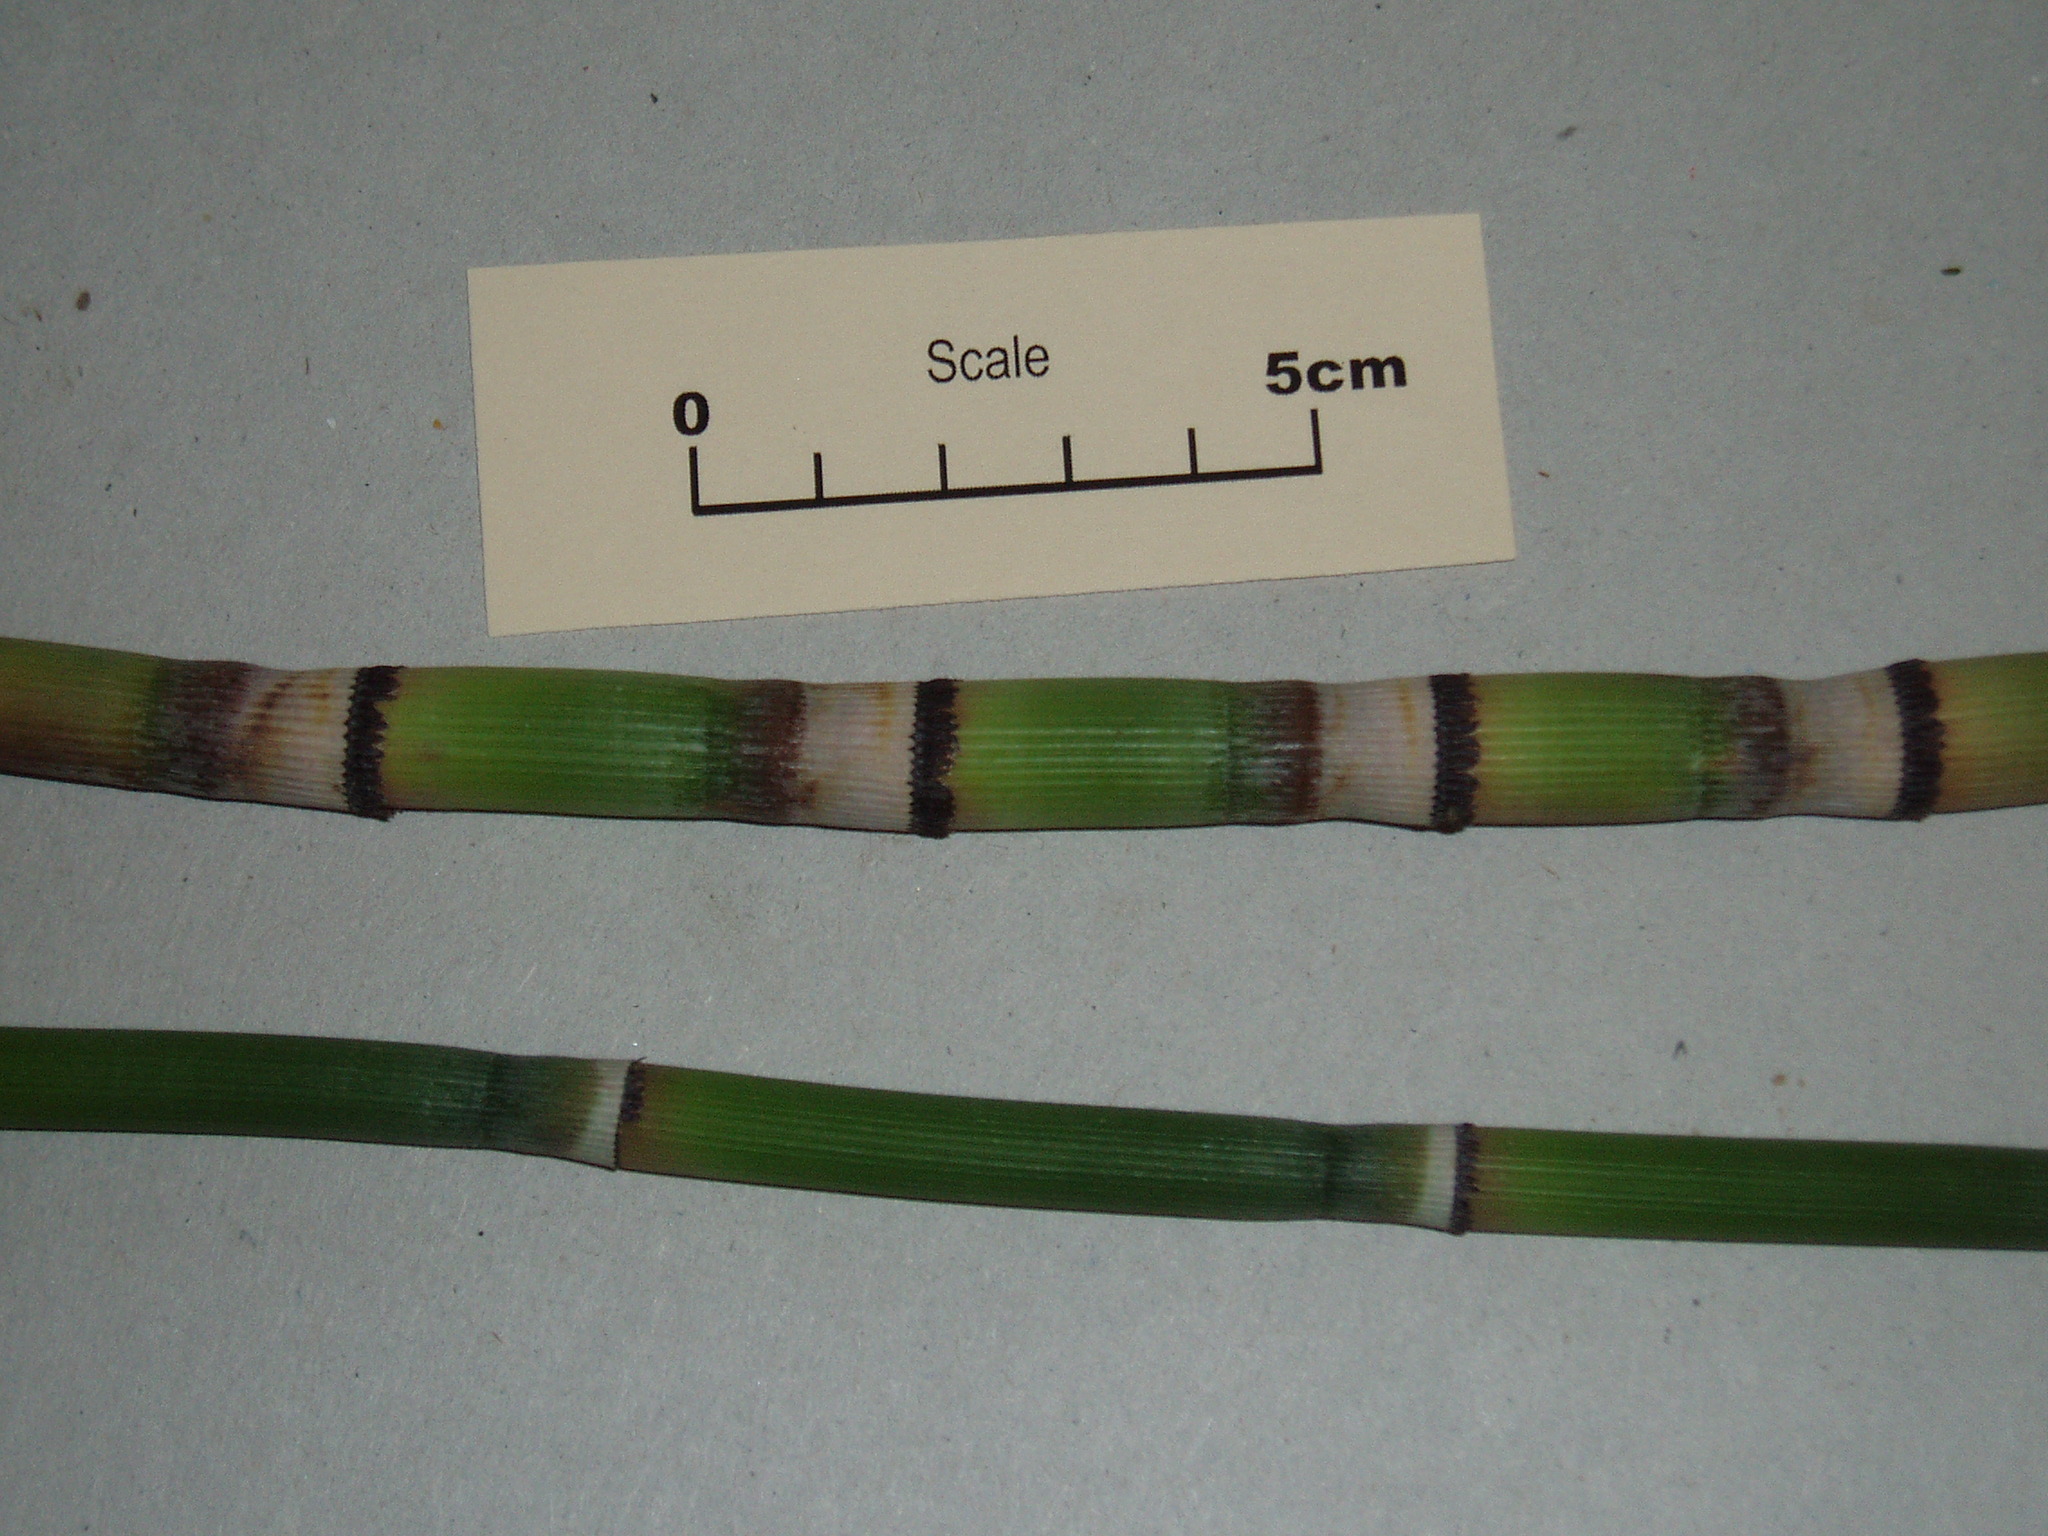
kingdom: Plantae
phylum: Tracheophyta
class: Polypodiopsida
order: Equisetales
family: Equisetaceae
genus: Equisetum
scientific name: Equisetum praealtum
